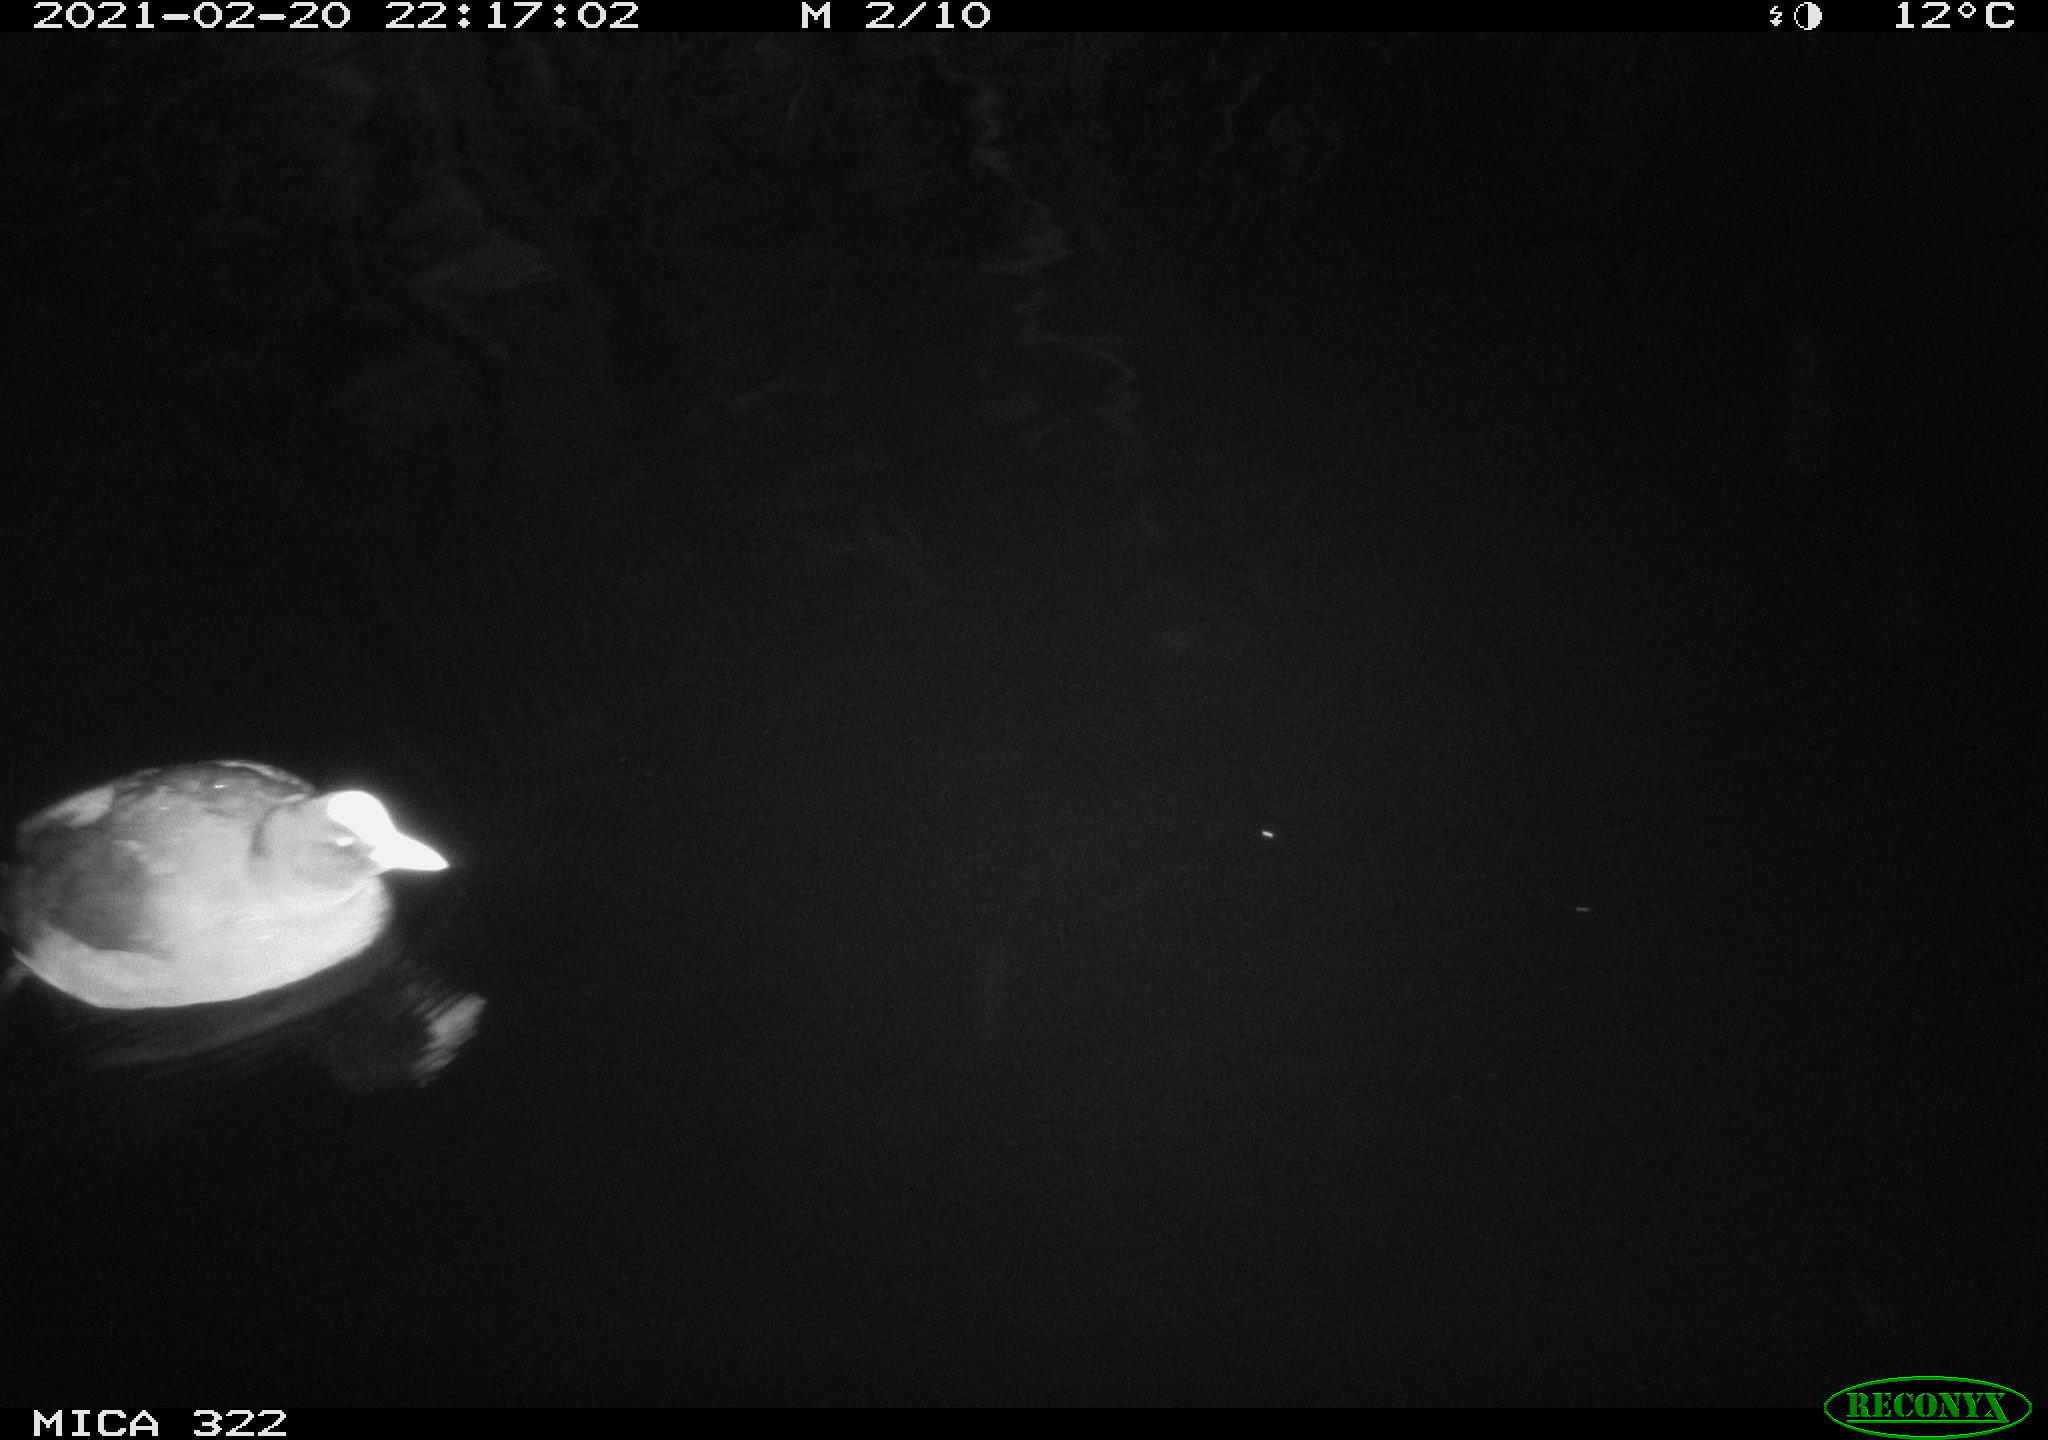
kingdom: Animalia
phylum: Chordata
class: Aves
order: Gruiformes
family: Rallidae
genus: Fulica
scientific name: Fulica atra
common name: Eurasian coot
